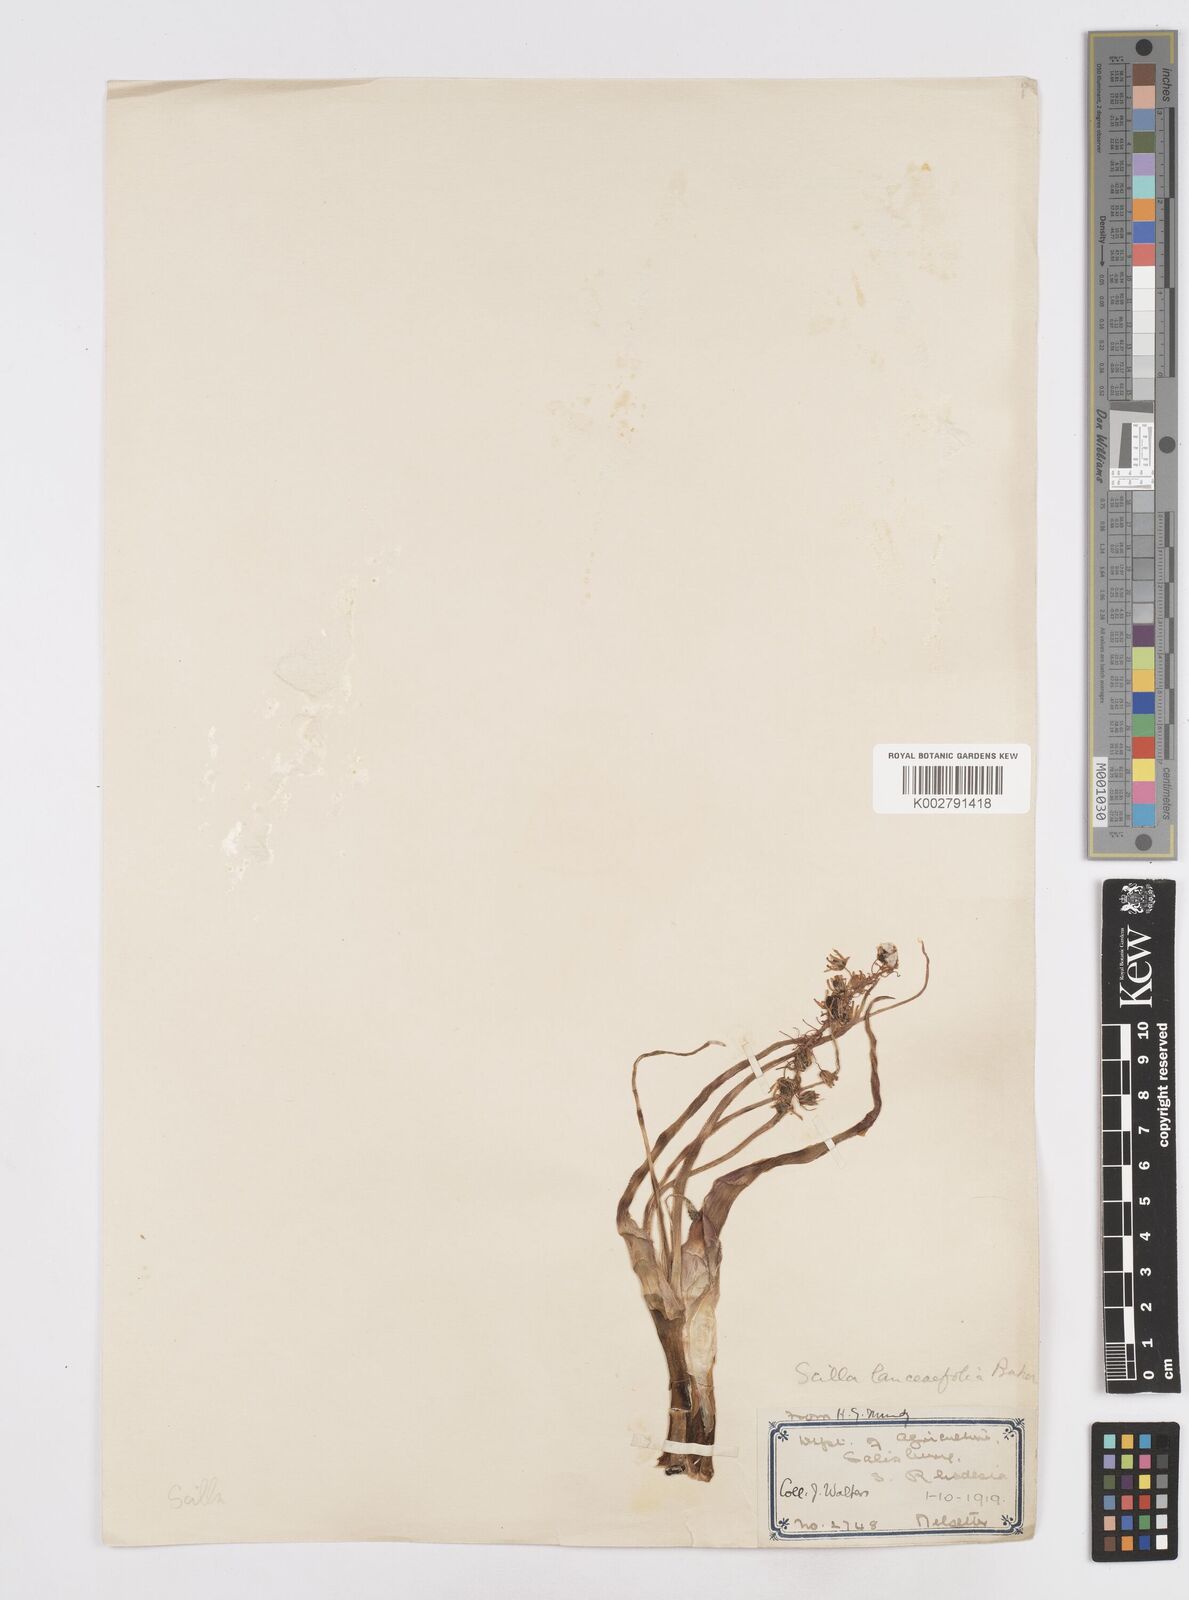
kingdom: Plantae
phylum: Tracheophyta
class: Liliopsida
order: Asparagales
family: Asparagaceae
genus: Ledebouria
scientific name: Ledebouria revoluta
